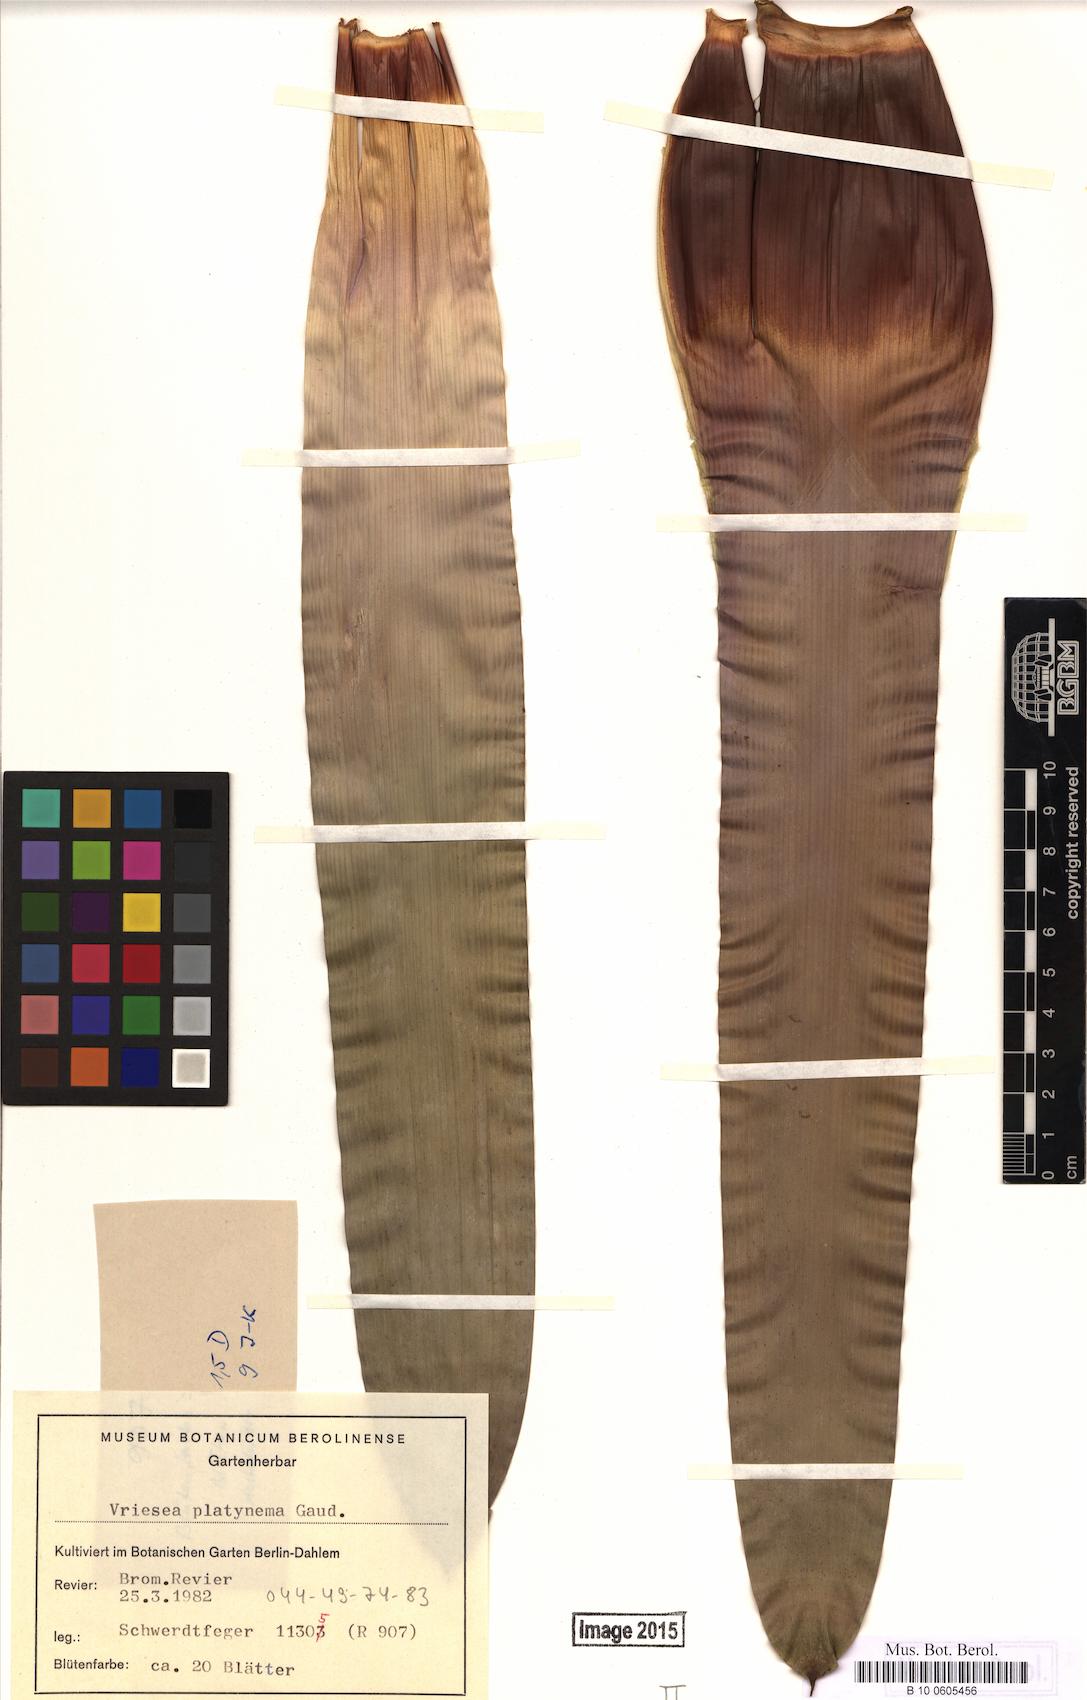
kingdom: Plantae
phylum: Tracheophyta
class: Liliopsida
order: Poales
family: Bromeliaceae
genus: Vriesea
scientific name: Vriesea platynema
